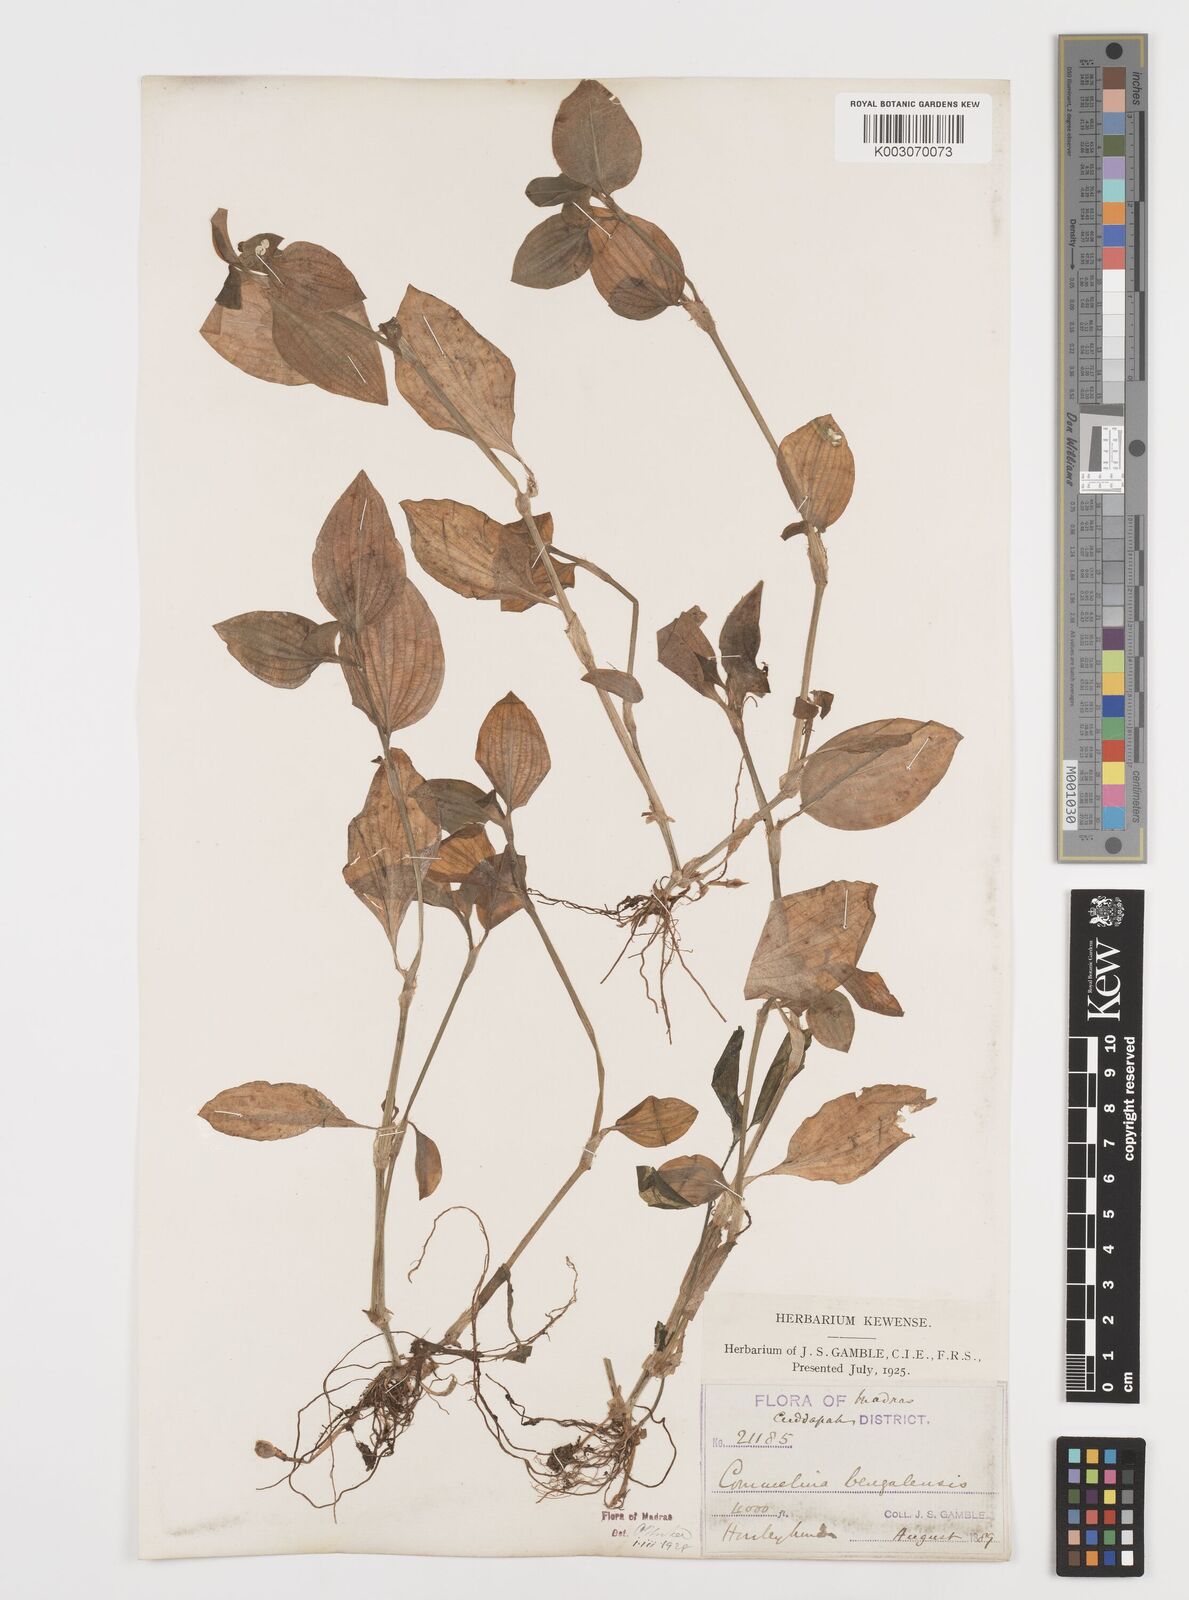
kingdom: Plantae
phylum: Tracheophyta
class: Liliopsida
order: Commelinales
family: Commelinaceae
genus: Commelina
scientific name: Commelina benghalensis
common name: Jio
